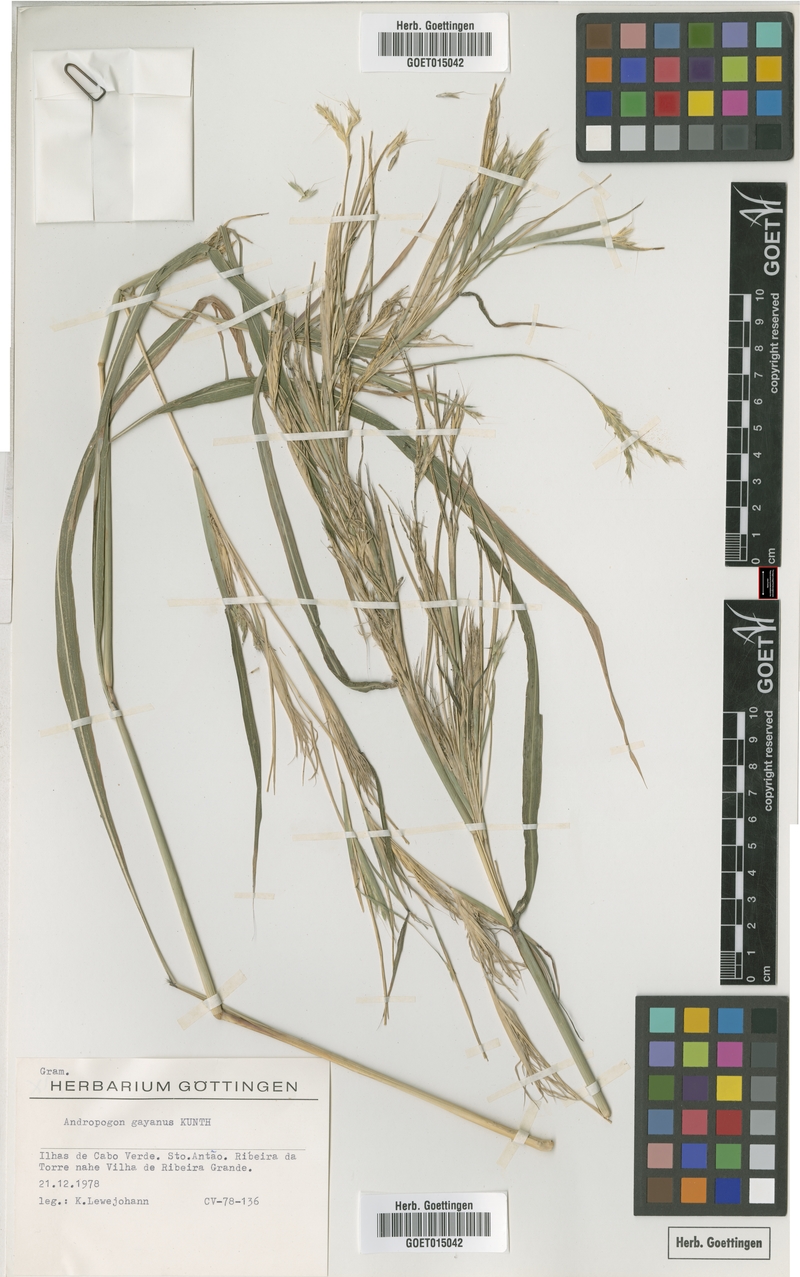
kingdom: Plantae
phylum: Tracheophyta
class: Liliopsida
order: Poales
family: Poaceae
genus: Andropogon
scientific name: Andropogon gayanus
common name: Tambuki grass
